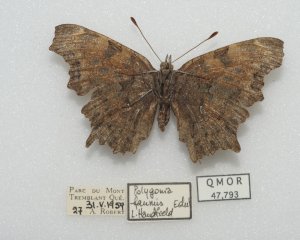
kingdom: Animalia
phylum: Arthropoda
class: Insecta
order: Lepidoptera
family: Nymphalidae
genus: Polygonia
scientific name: Polygonia faunus
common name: Green Comma
